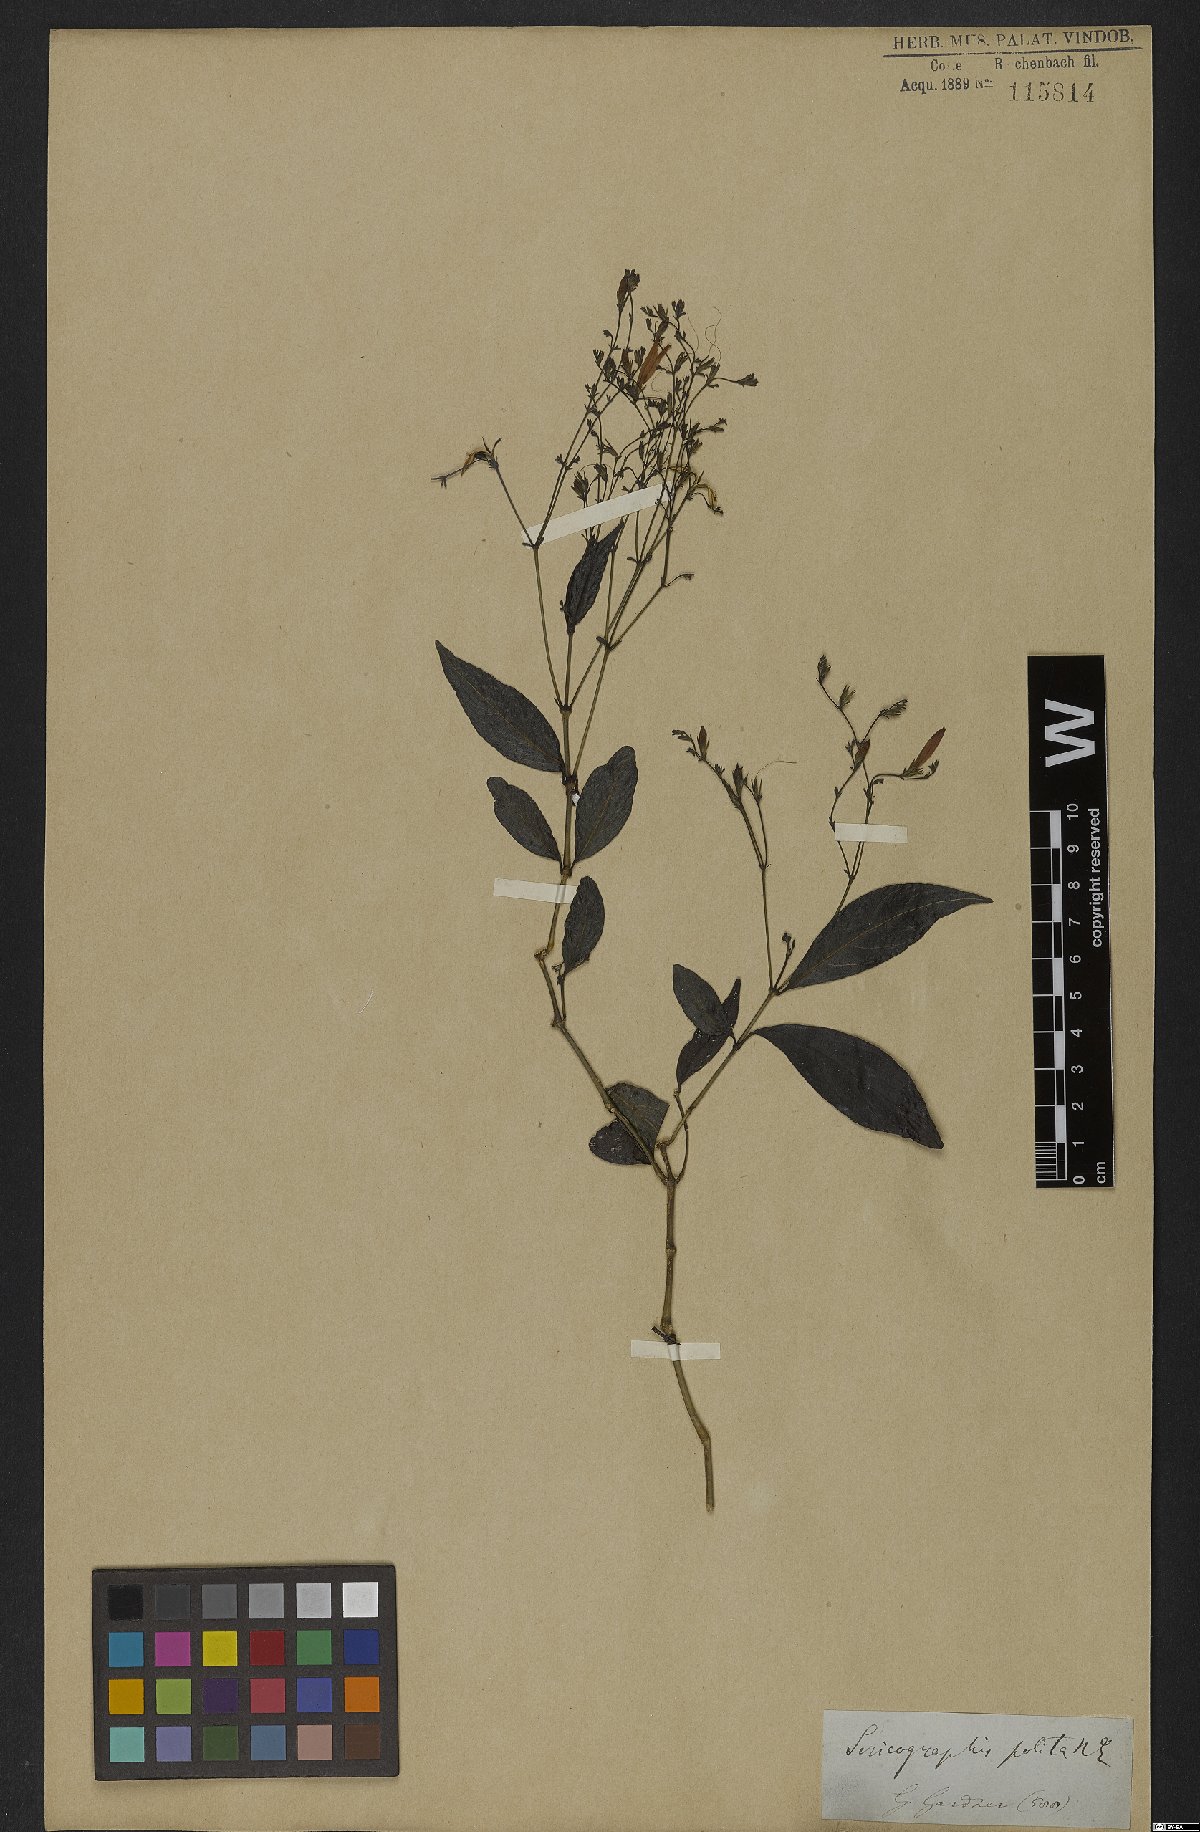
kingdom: Plantae
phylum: Tracheophyta
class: Magnoliopsida
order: Lamiales
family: Acanthaceae
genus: Justicia
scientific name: Justicia polita
